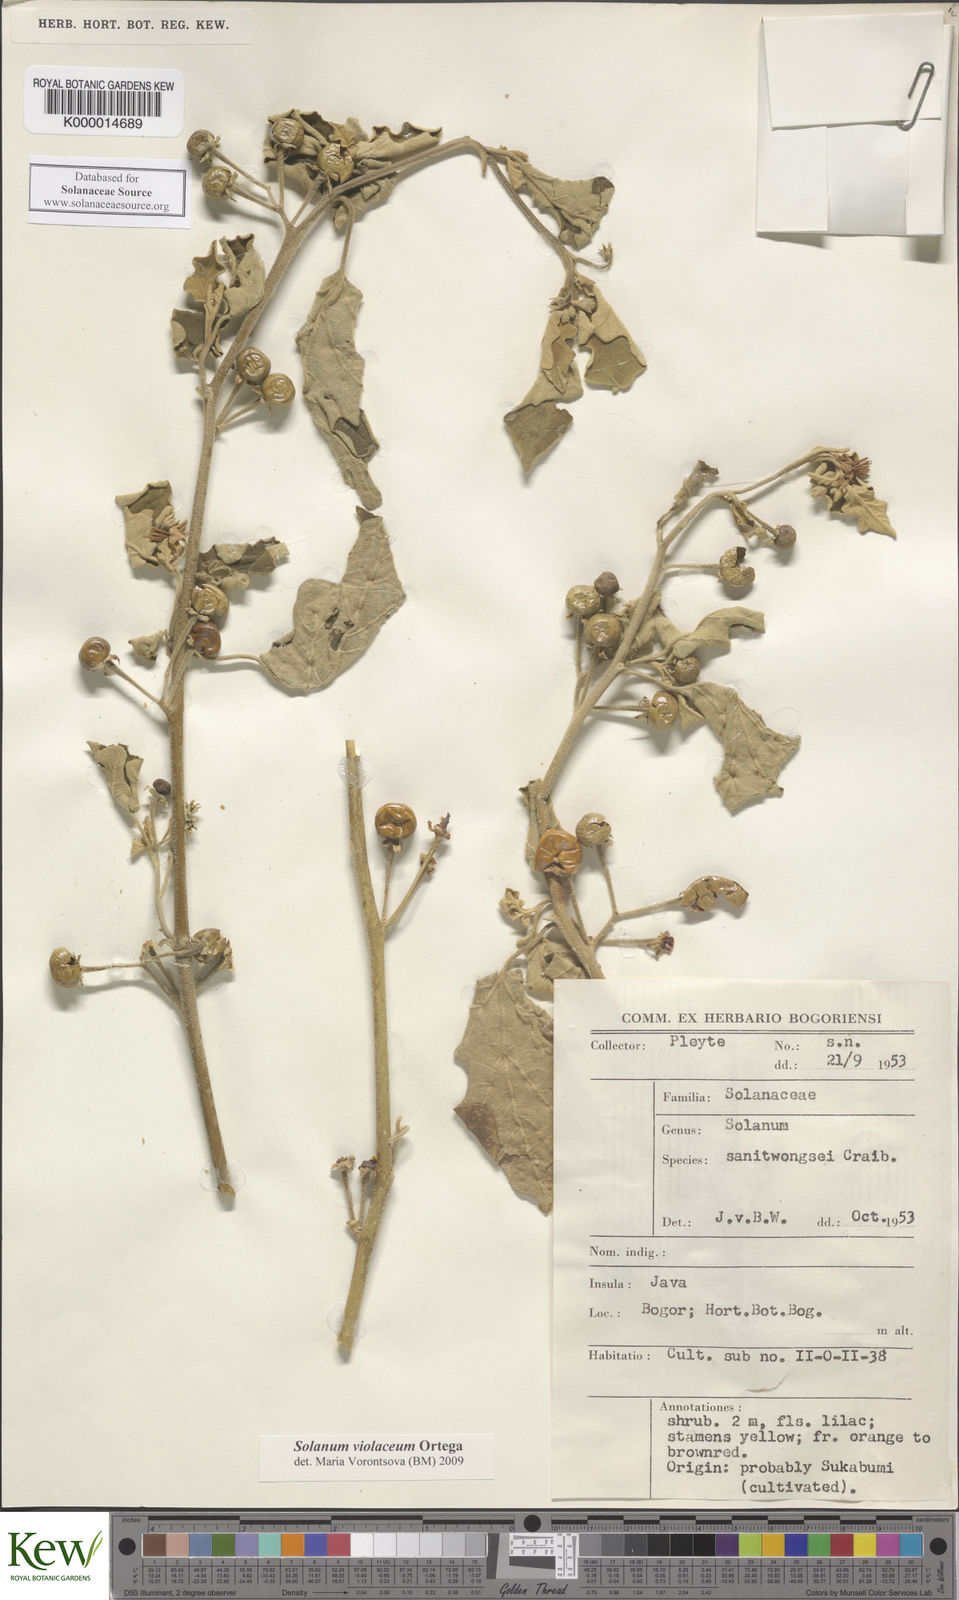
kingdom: Plantae
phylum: Tracheophyta
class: Magnoliopsida
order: Solanales
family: Solanaceae
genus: Solanum
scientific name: Solanum violaceum
